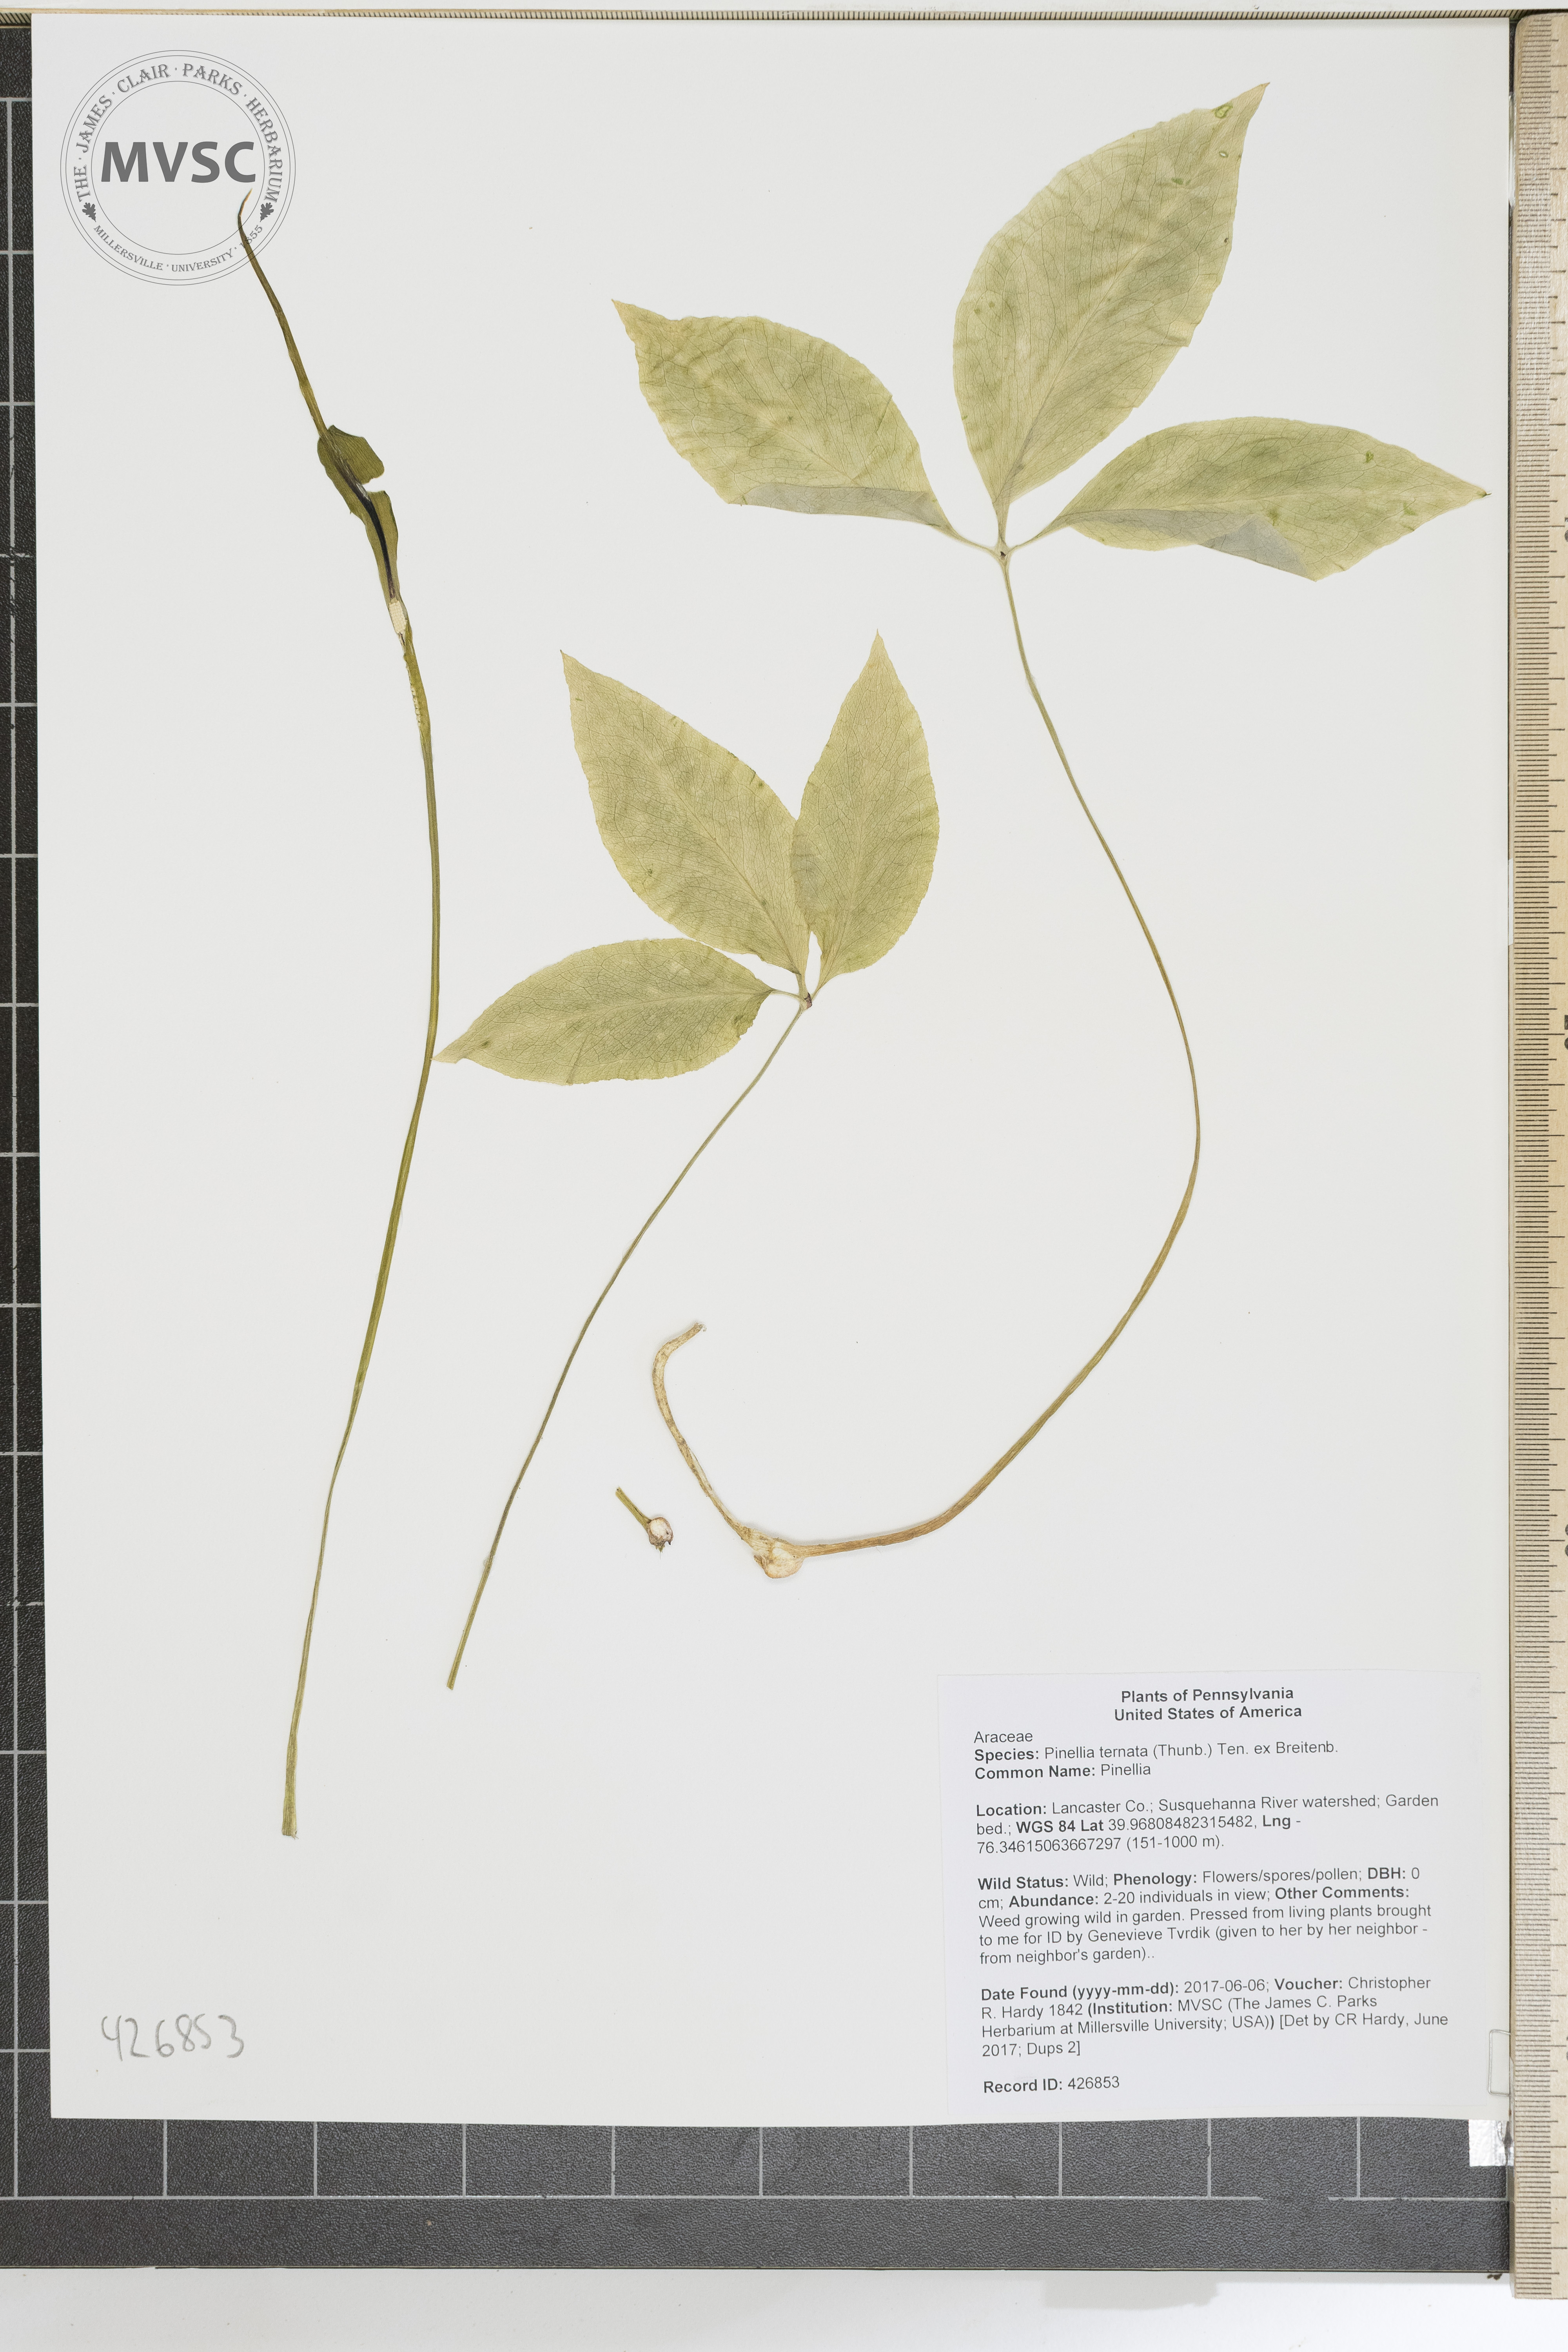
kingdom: Plantae
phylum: Tracheophyta
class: Liliopsida
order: Alismatales
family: Araceae
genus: Pinellia
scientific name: Pinellia ternata
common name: Pinellia
